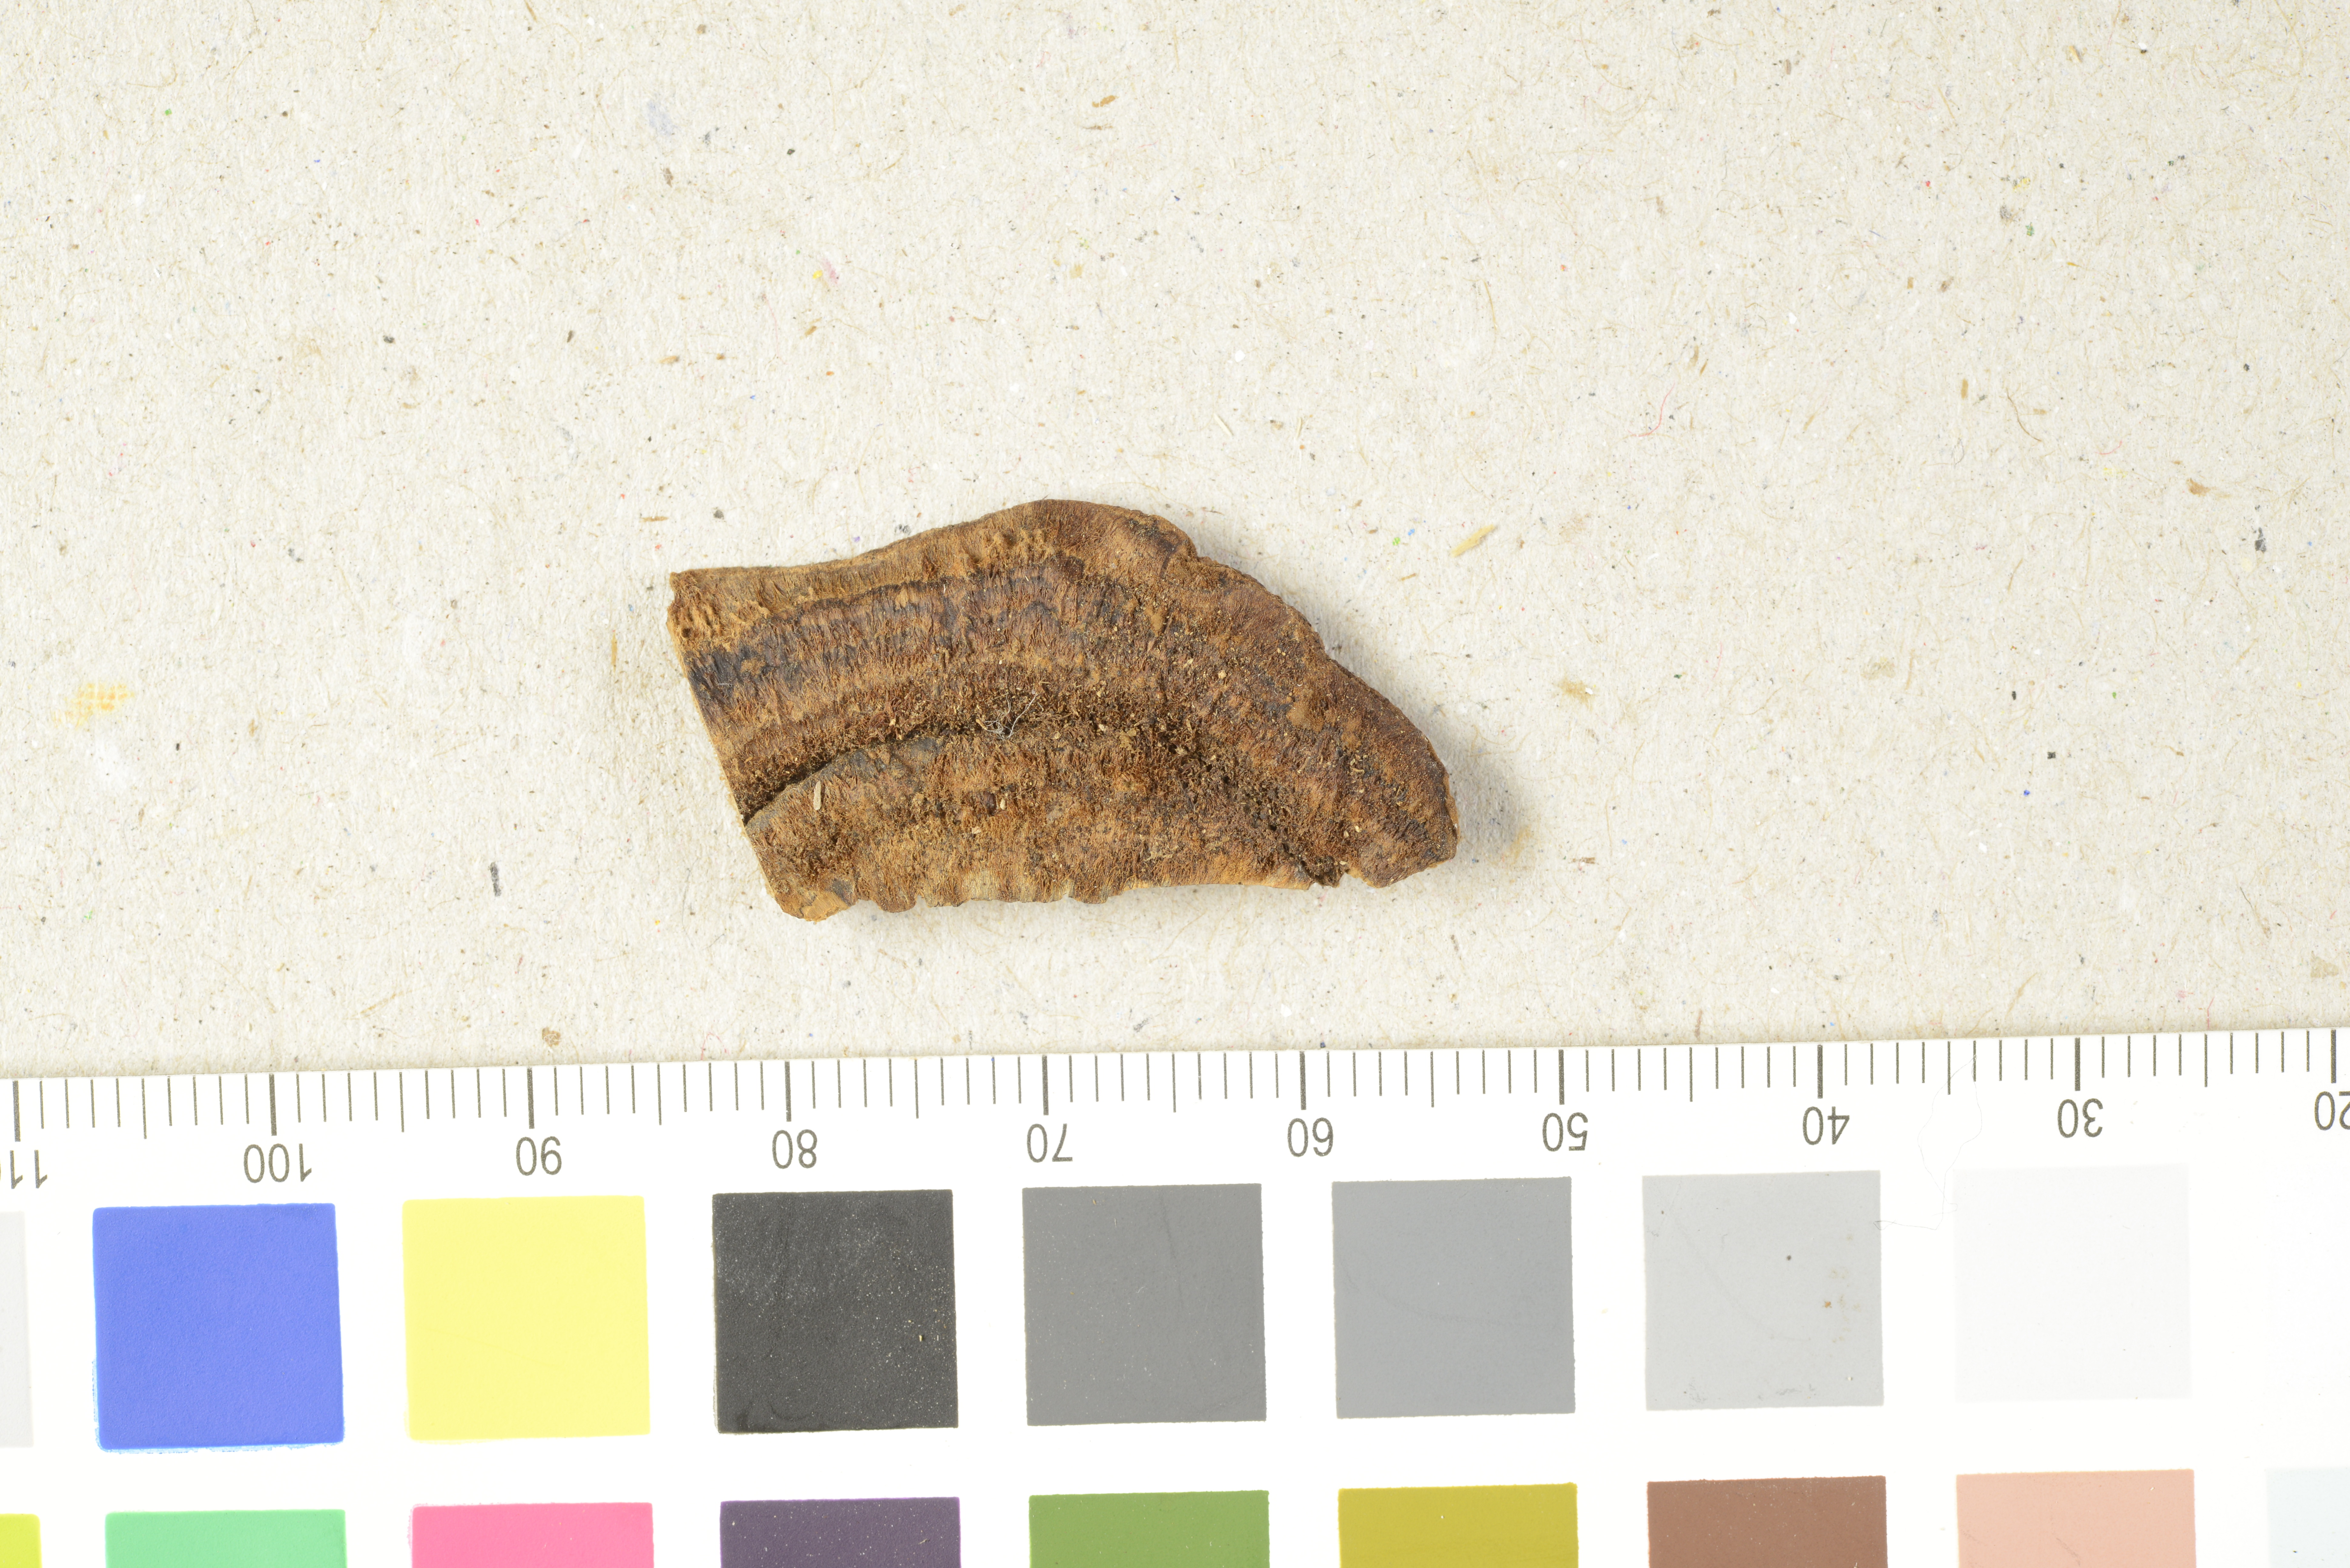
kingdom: Fungi
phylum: Basidiomycota
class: Agaricomycetes
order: Polyporales
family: Cerrenaceae
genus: Cerrena
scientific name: Cerrena caperata
